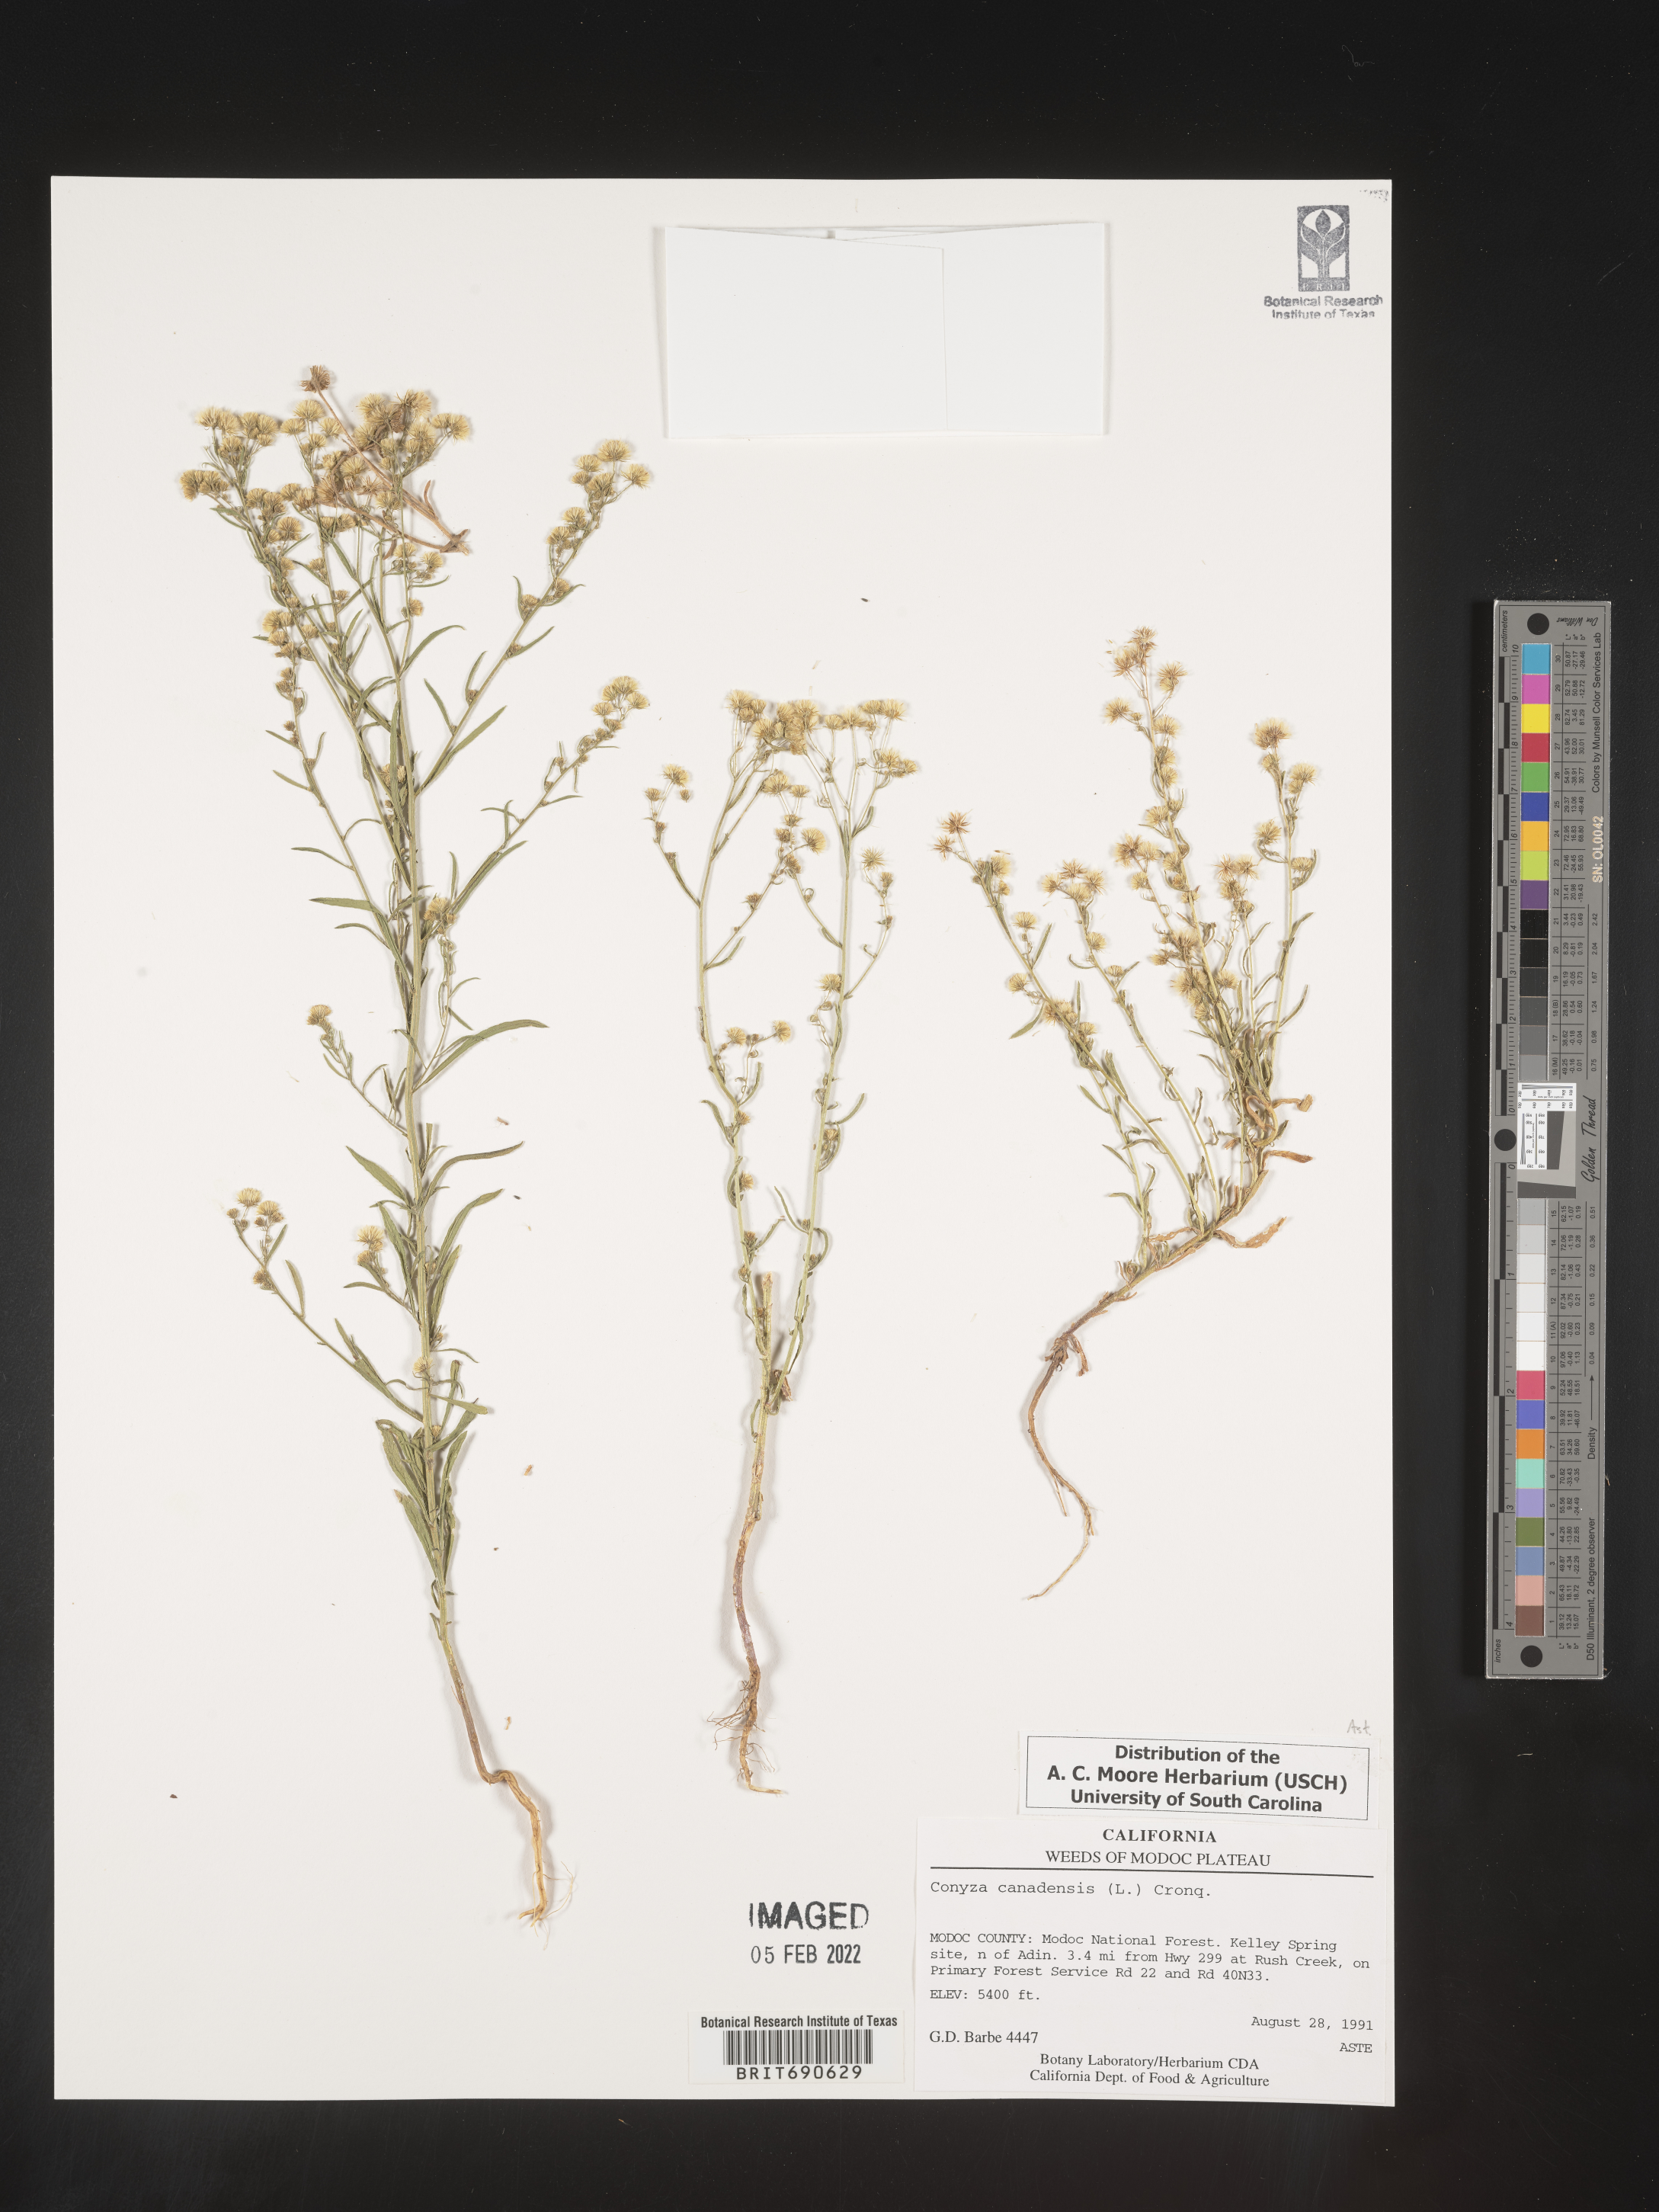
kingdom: Plantae
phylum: Tracheophyta
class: Magnoliopsida
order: Asterales
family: Asteraceae
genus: Erigeron
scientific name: Erigeron canadensis
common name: Canadian fleabane
